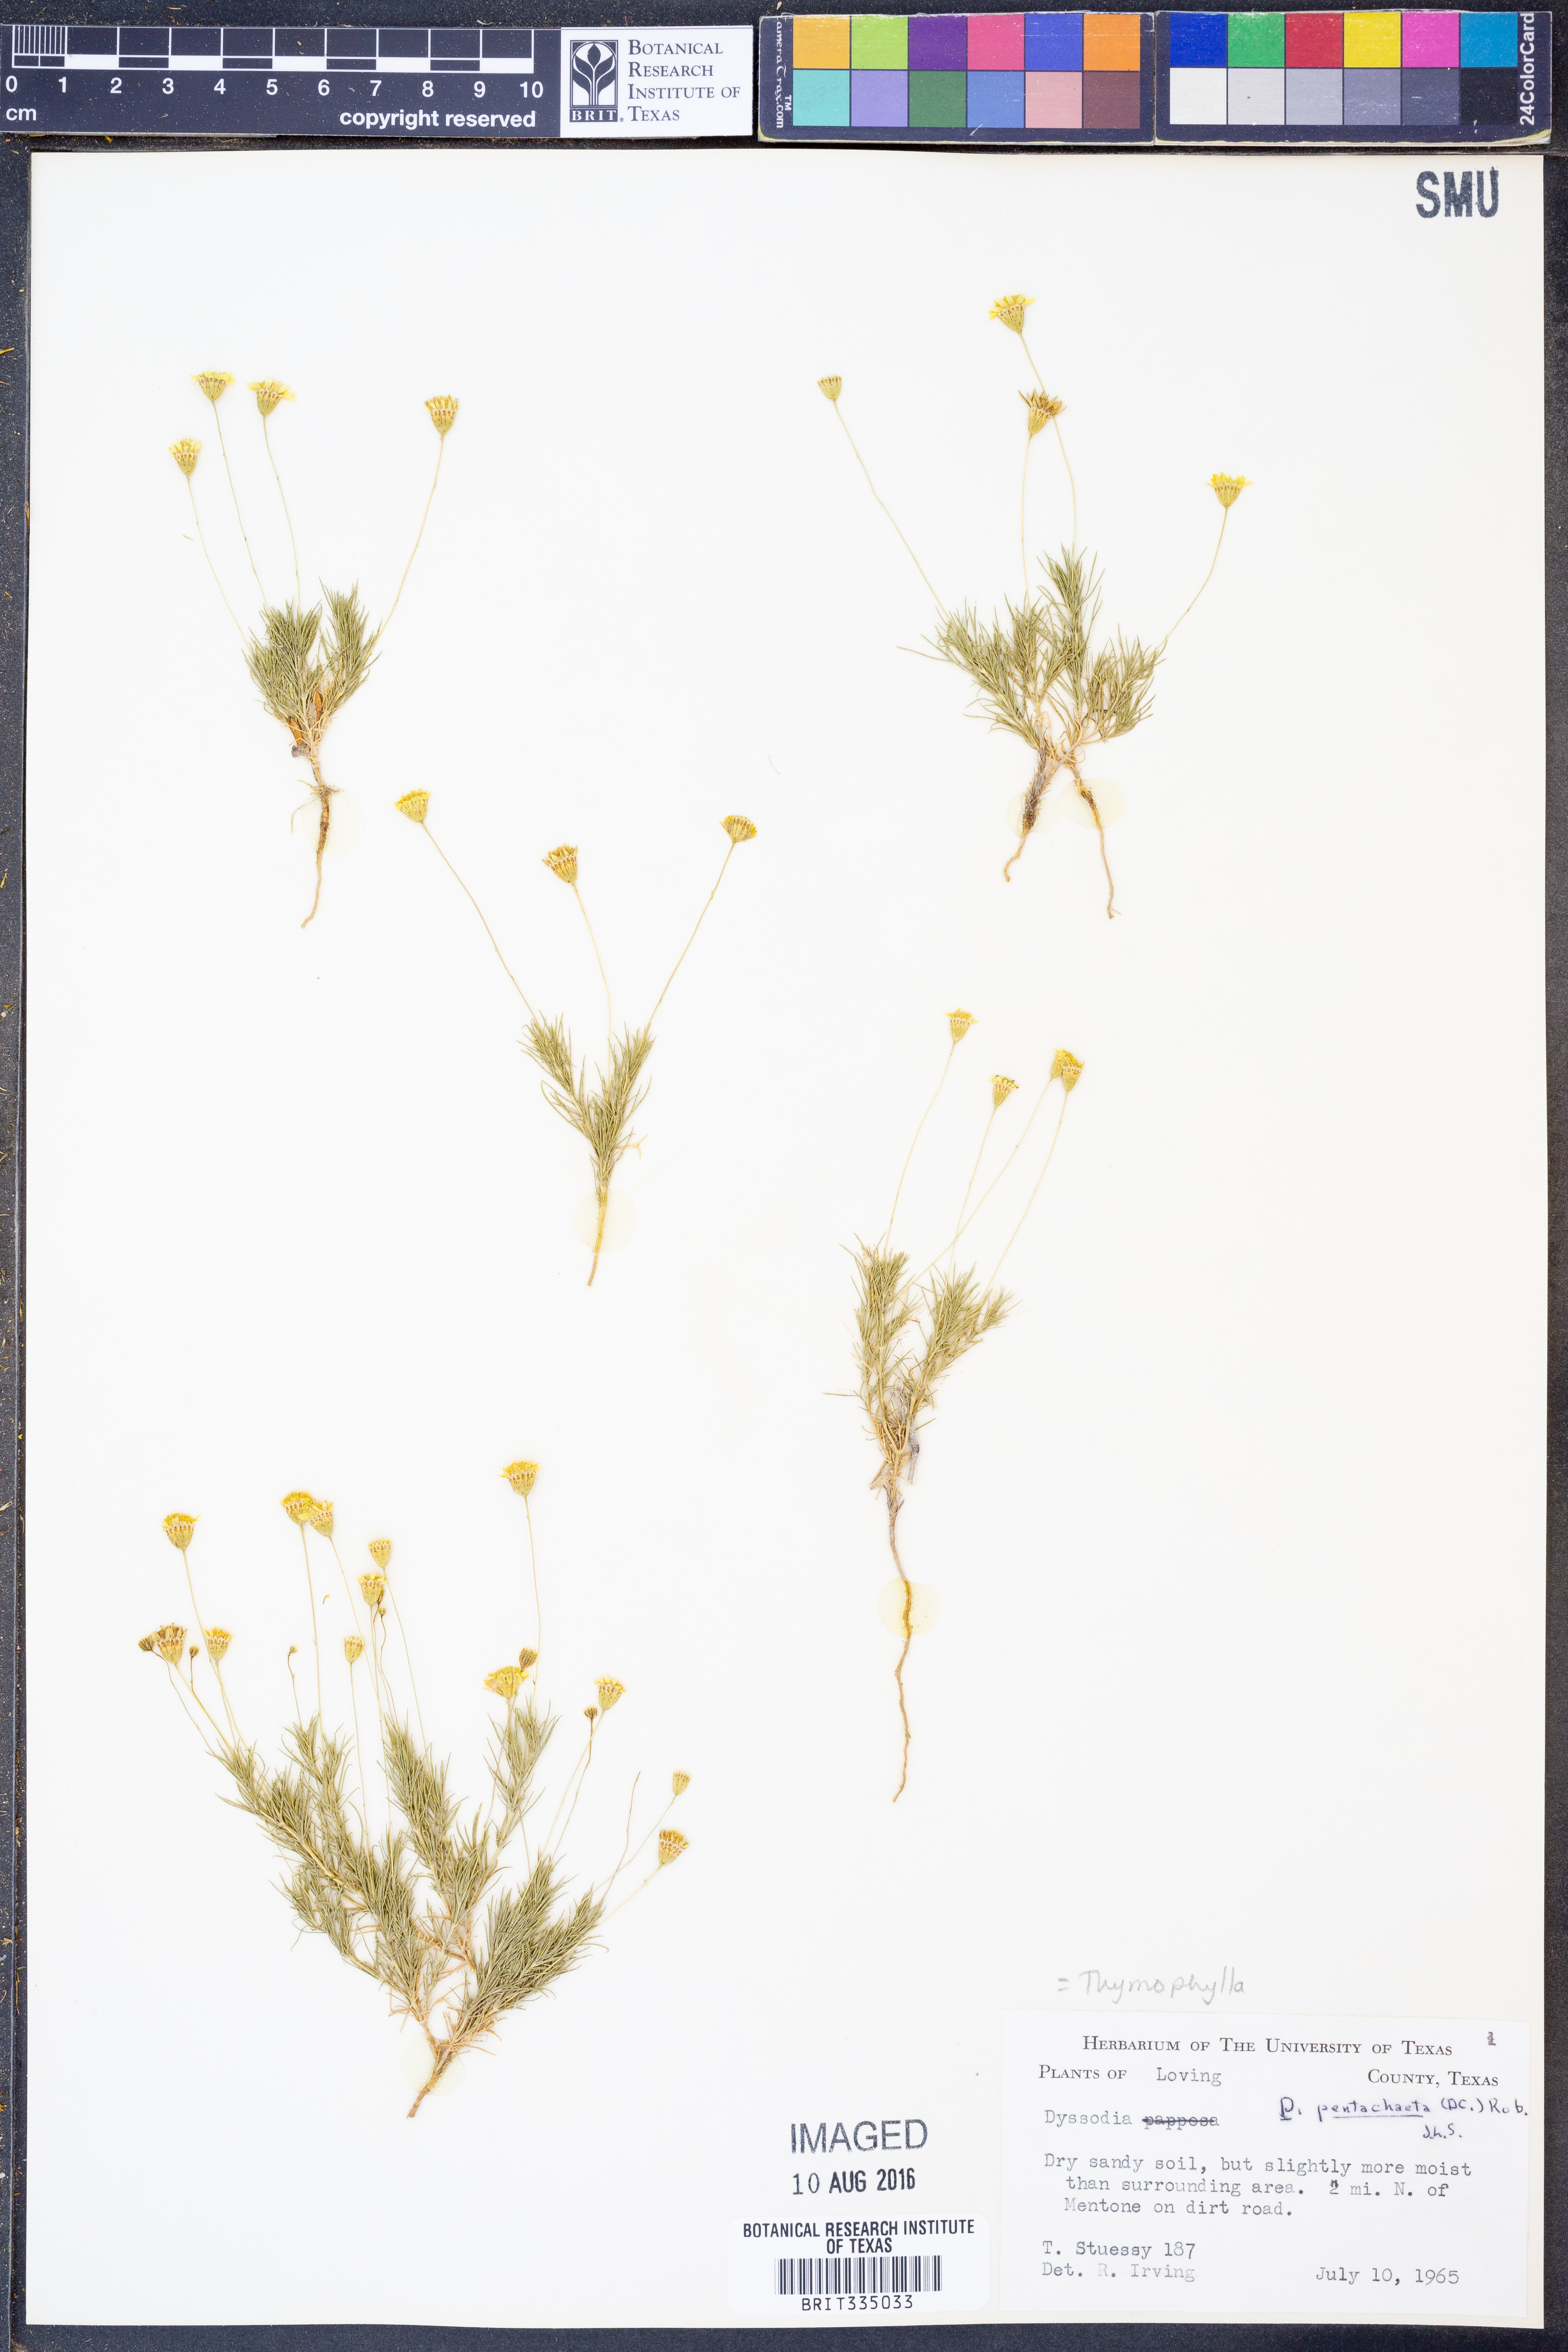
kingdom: Plantae
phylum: Tracheophyta
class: Magnoliopsida
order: Asterales
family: Asteraceae
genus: Thymophylla
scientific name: Thymophylla pentachaeta
